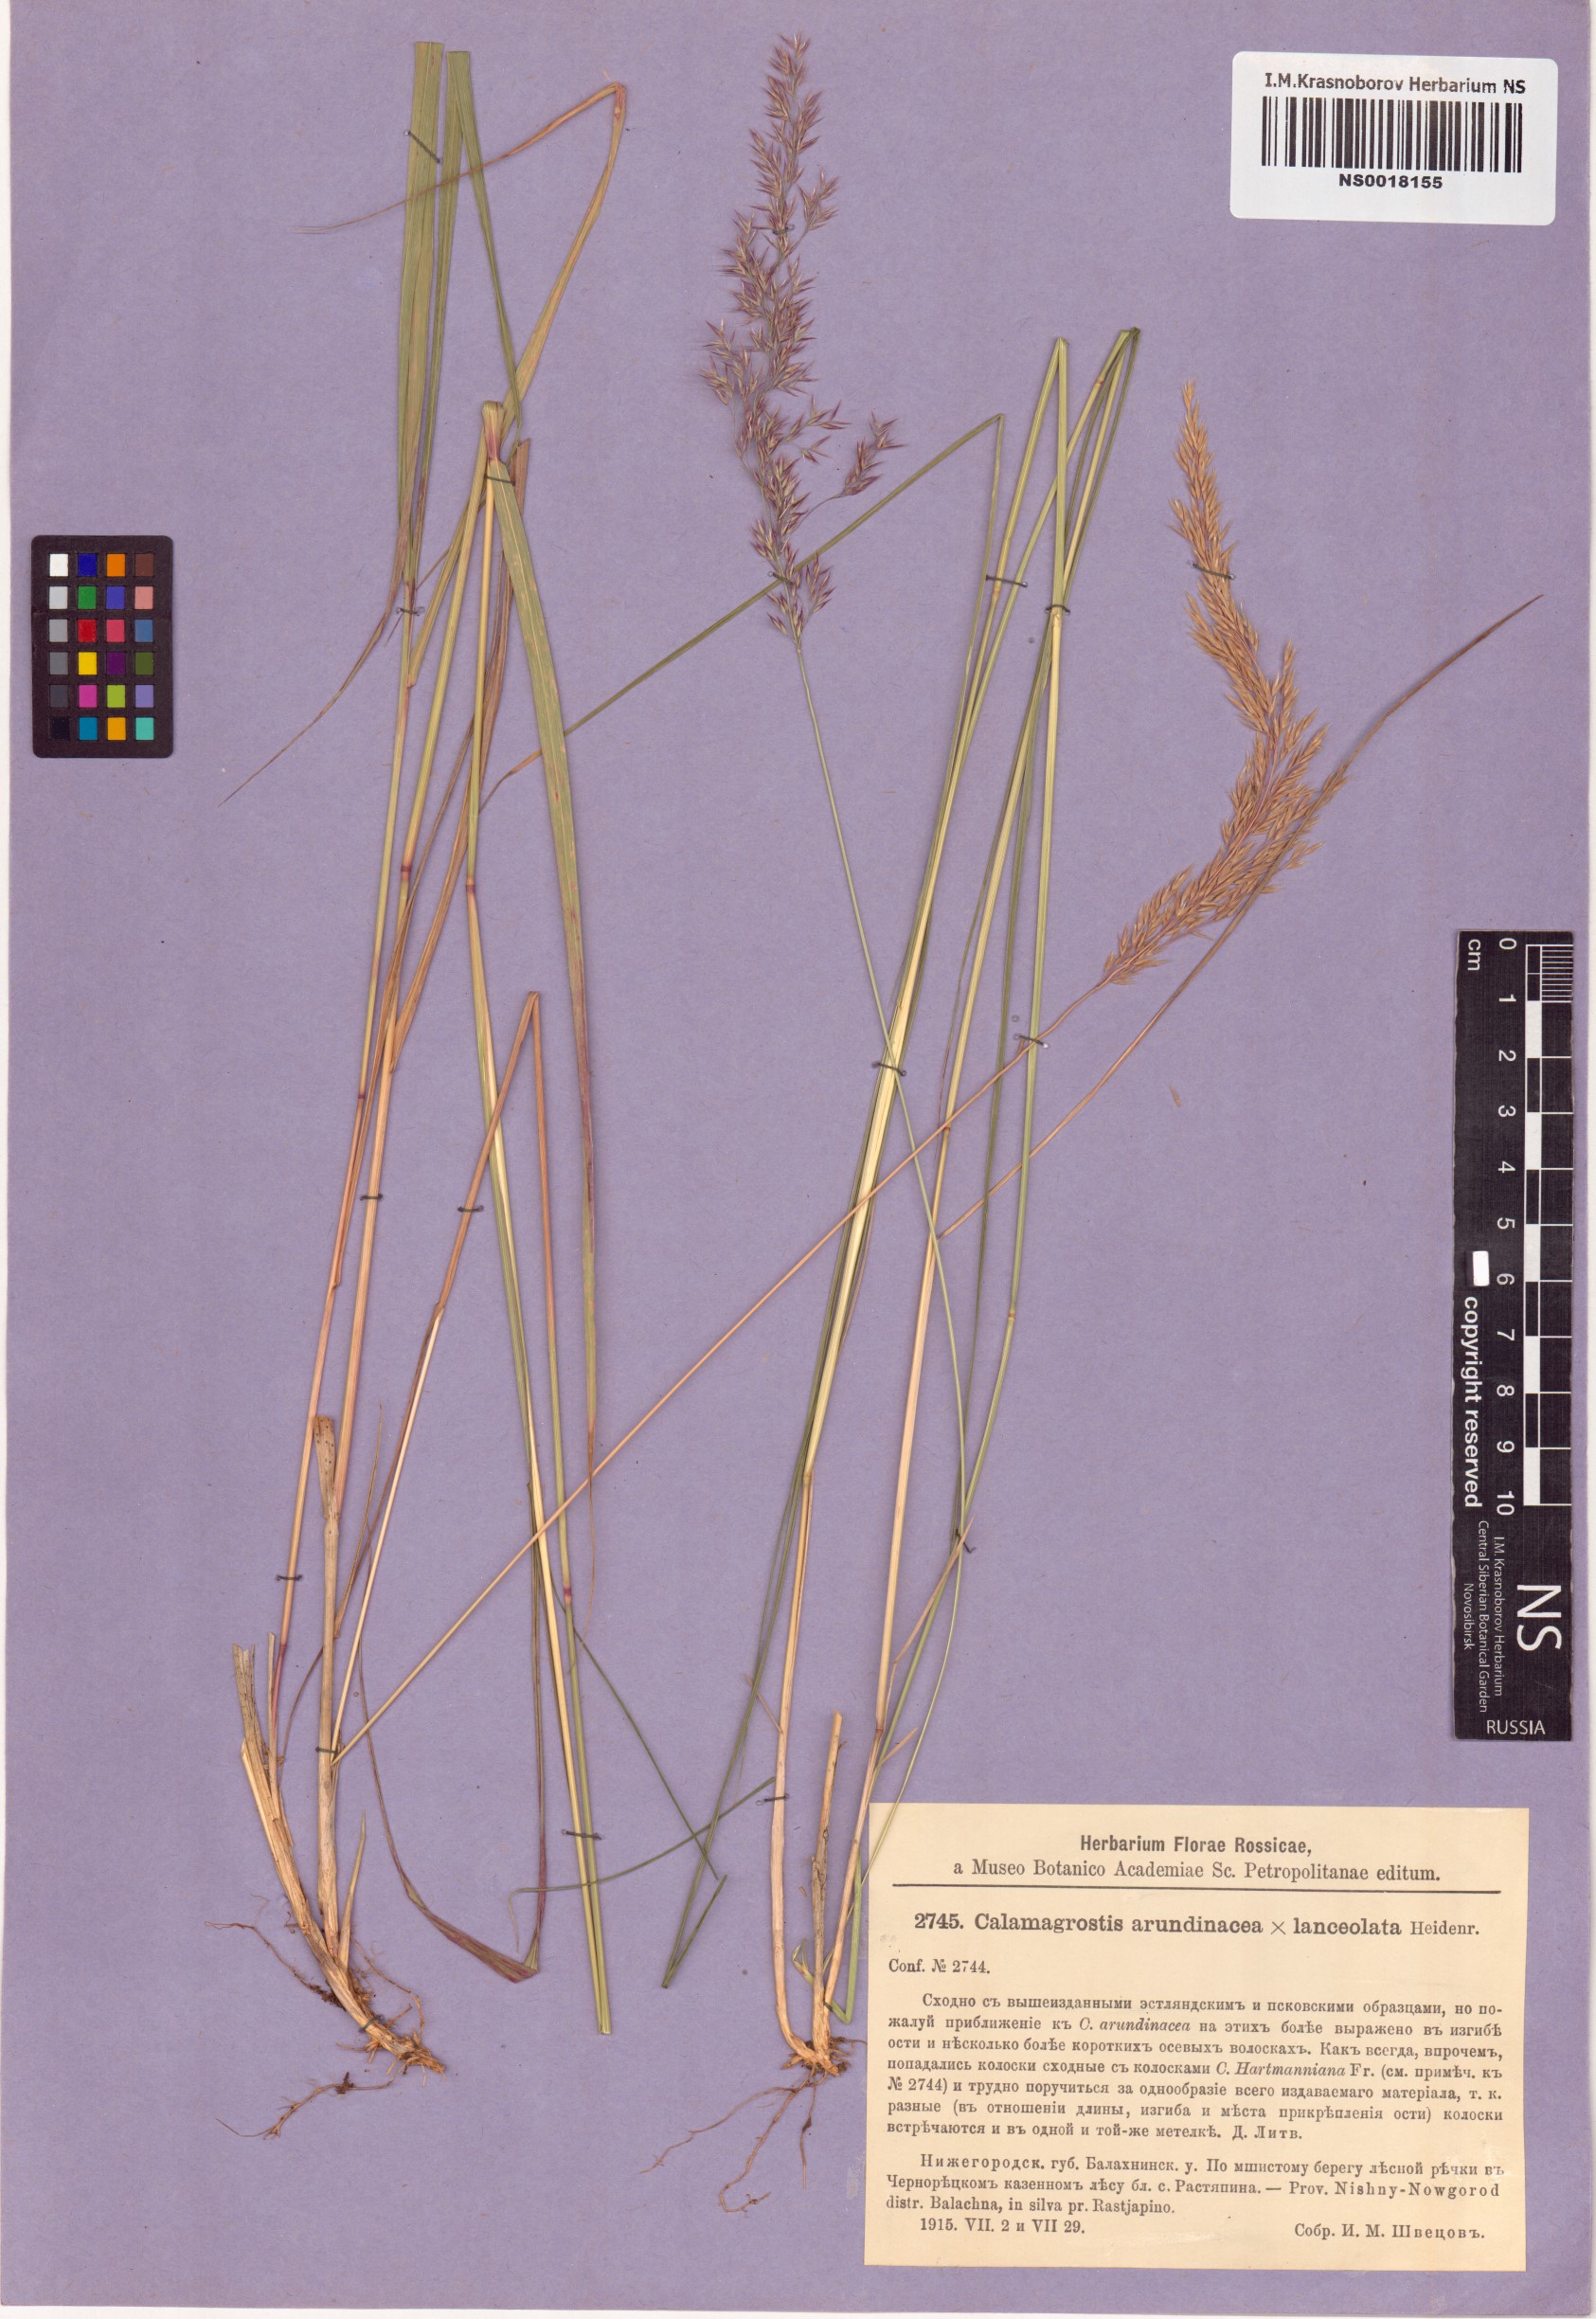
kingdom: Plantae
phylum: Tracheophyta
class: Liliopsida
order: Poales
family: Poaceae
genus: Calamagrostis
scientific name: Calamagrostis caucasica
